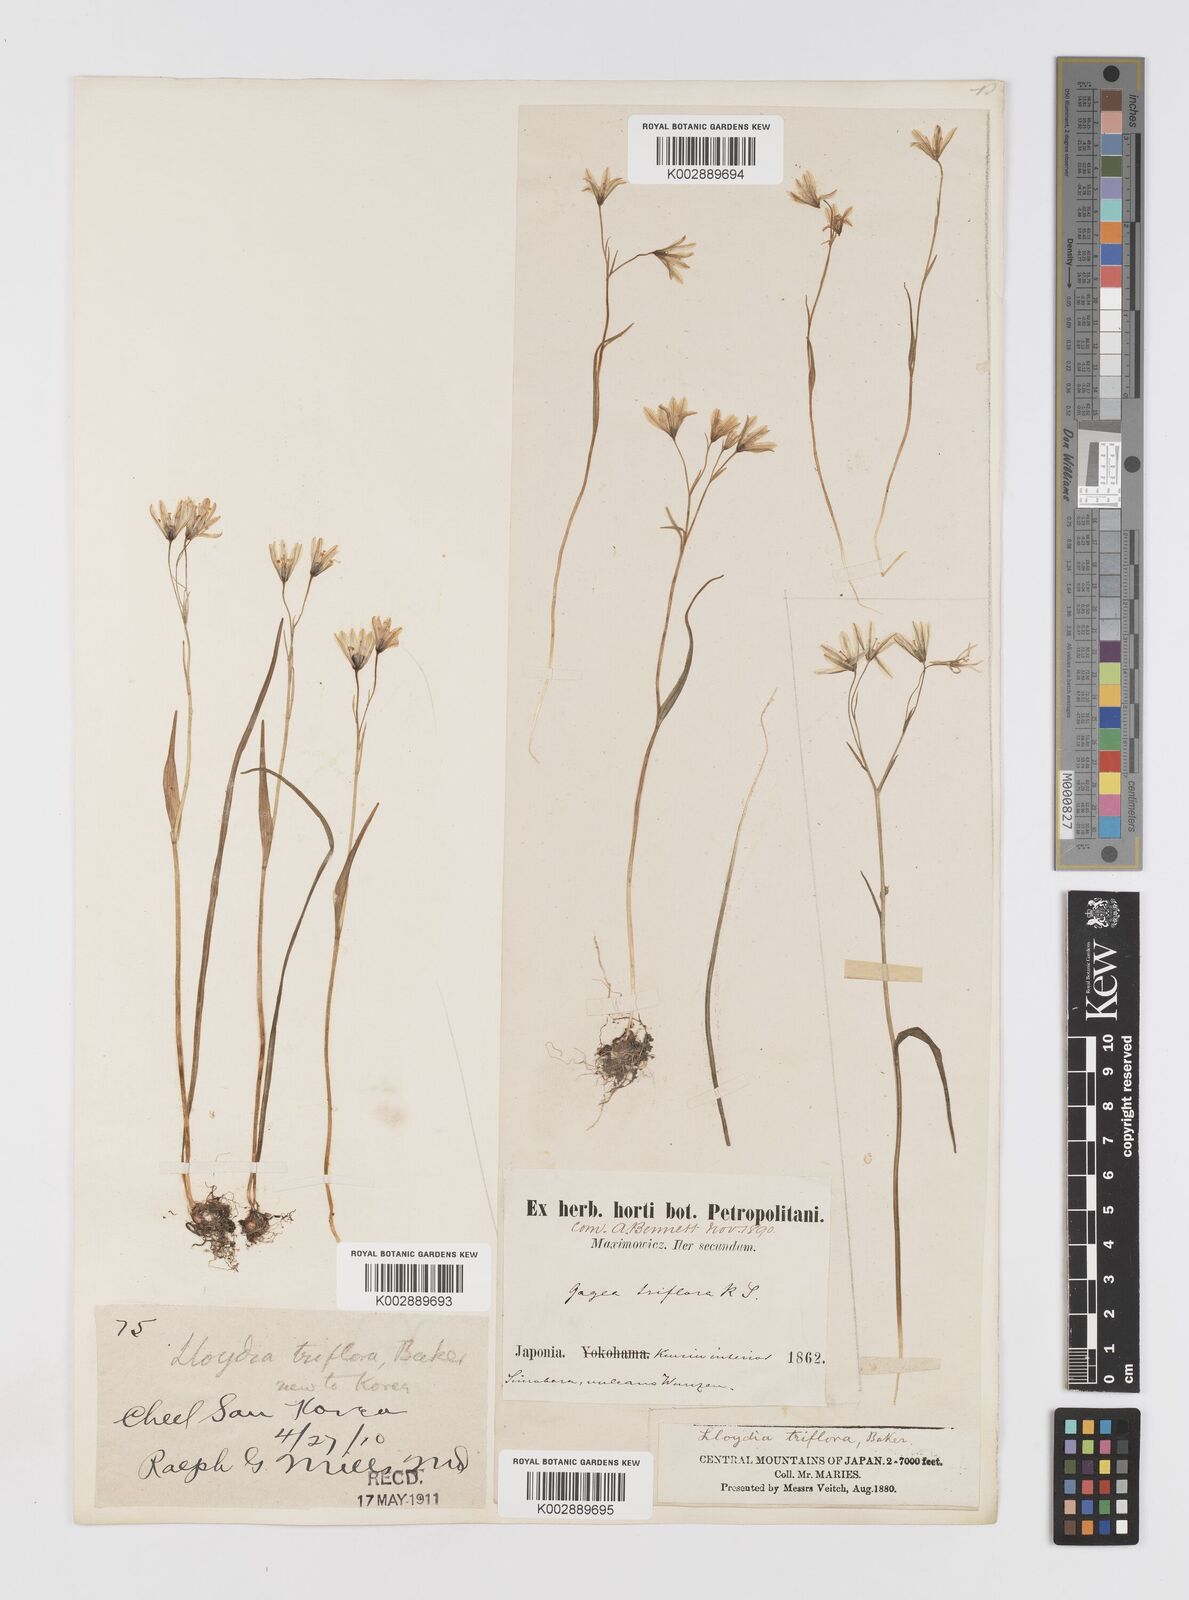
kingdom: Plantae
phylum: Tracheophyta
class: Liliopsida
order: Liliales
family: Liliaceae
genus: Gagea
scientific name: Gagea triflora
